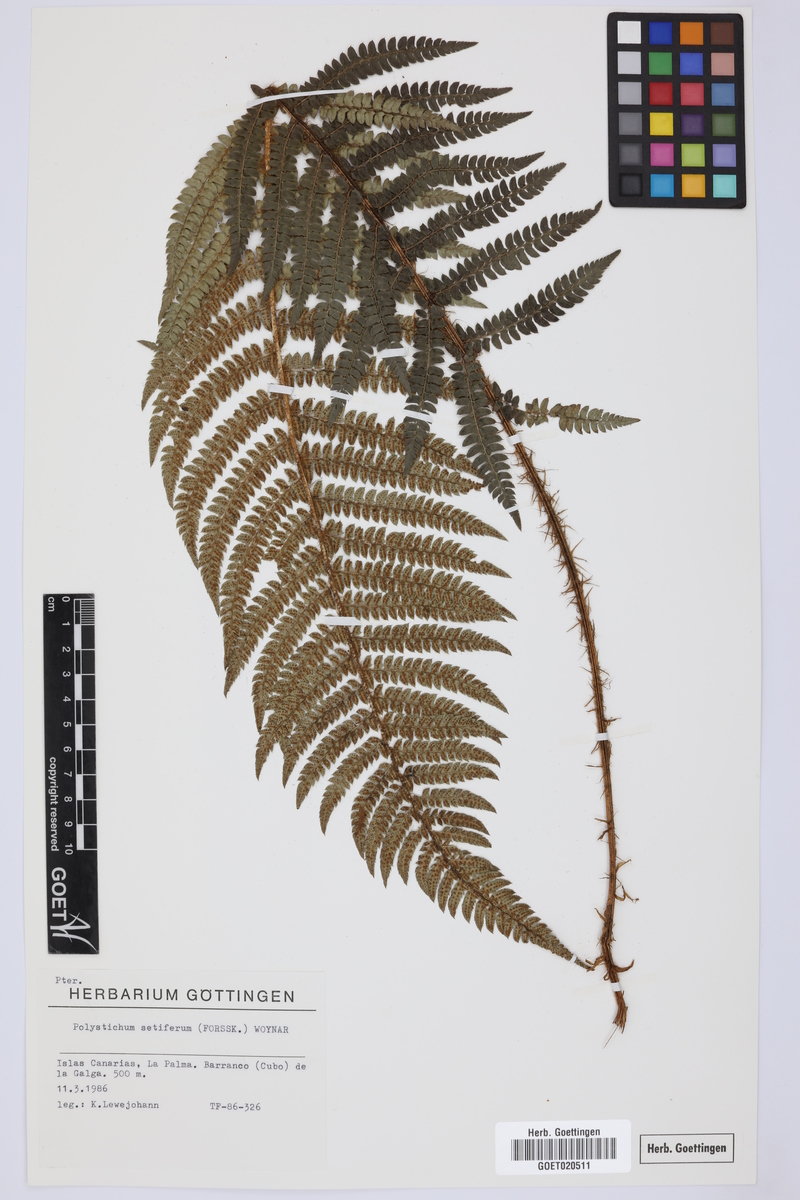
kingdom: Plantae
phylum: Tracheophyta
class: Polypodiopsida
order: Polypodiales
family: Dryopteridaceae
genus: Polystichum
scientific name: Polystichum setiferum
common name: Soft shield-fern
